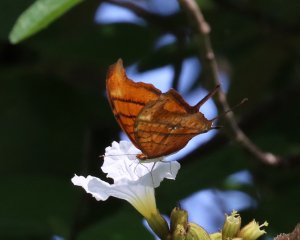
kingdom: Animalia
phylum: Arthropoda
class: Insecta
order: Lepidoptera
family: Nymphalidae
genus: Marpesia
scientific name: Marpesia petreus
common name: Ruddy Daggerwing
